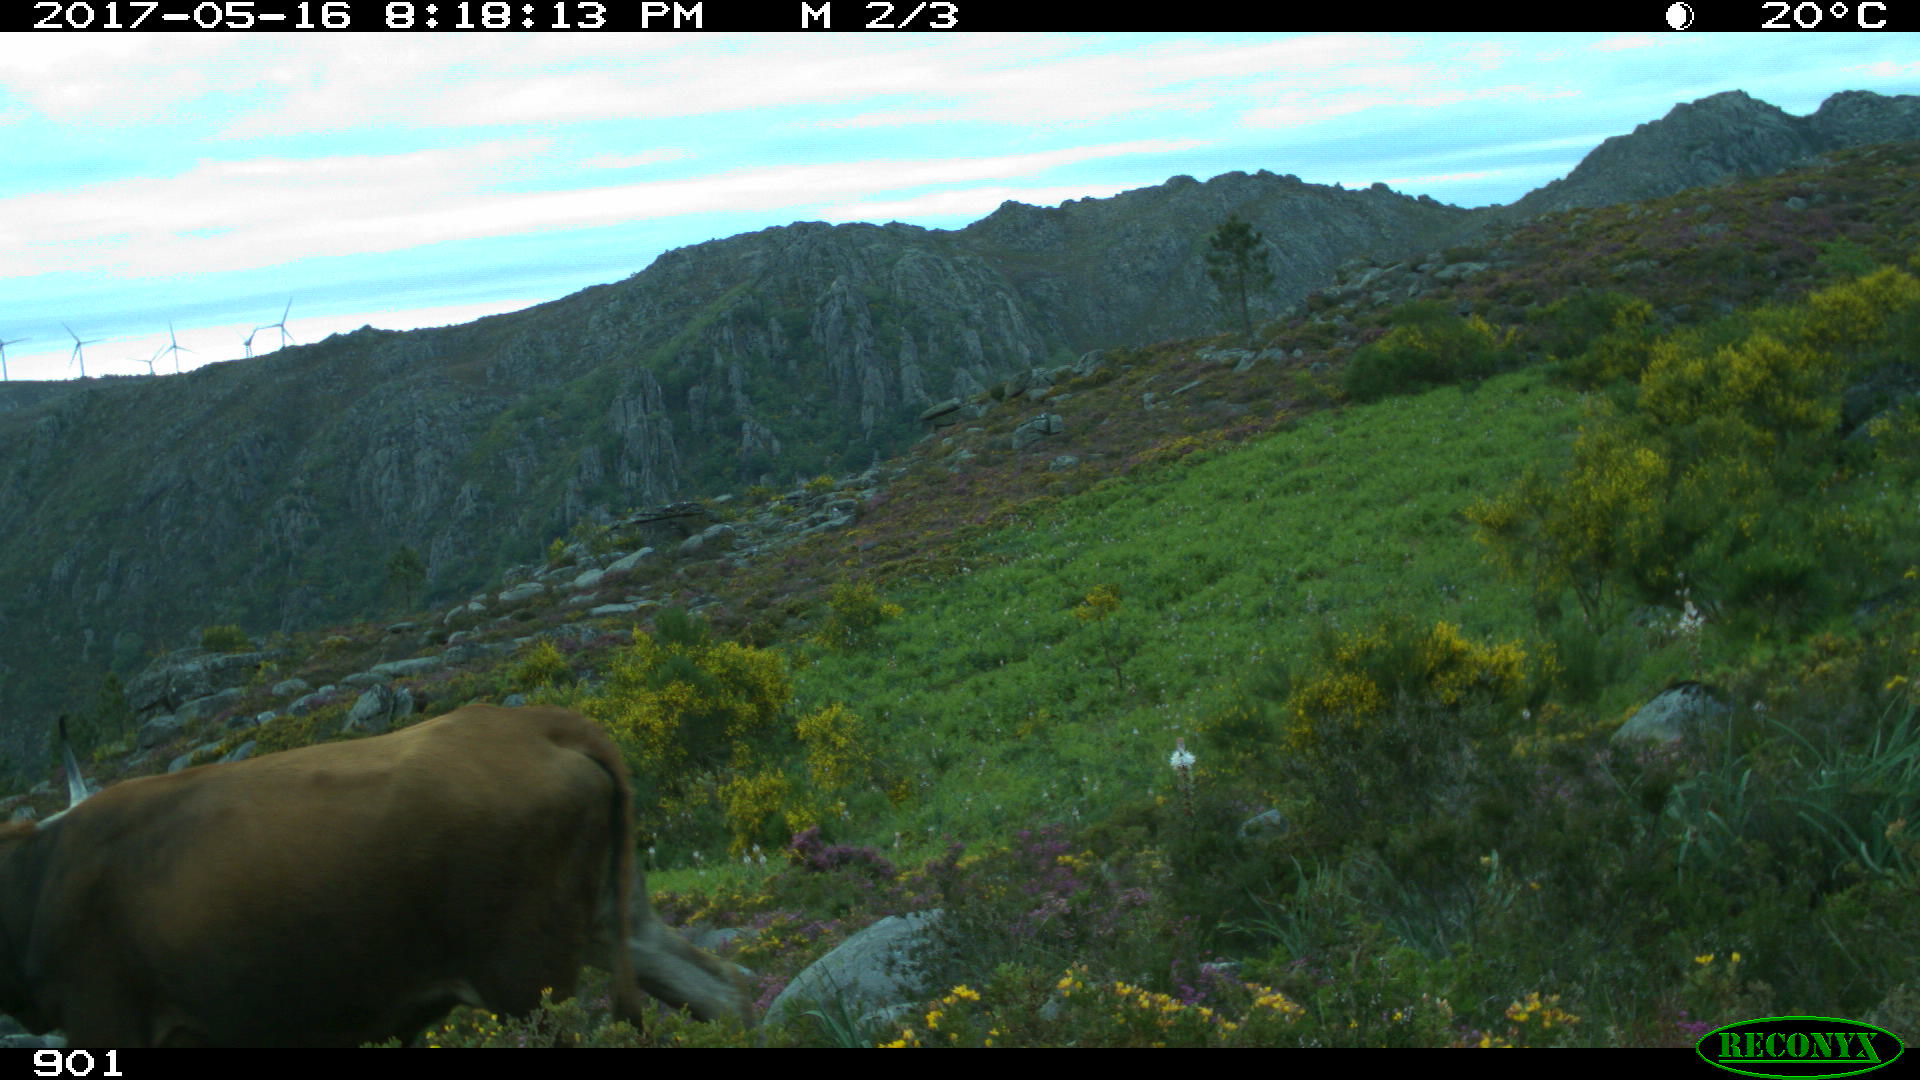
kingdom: Animalia
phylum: Chordata
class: Mammalia
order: Artiodactyla
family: Bovidae
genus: Bos
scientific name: Bos taurus
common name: Domesticated cattle
